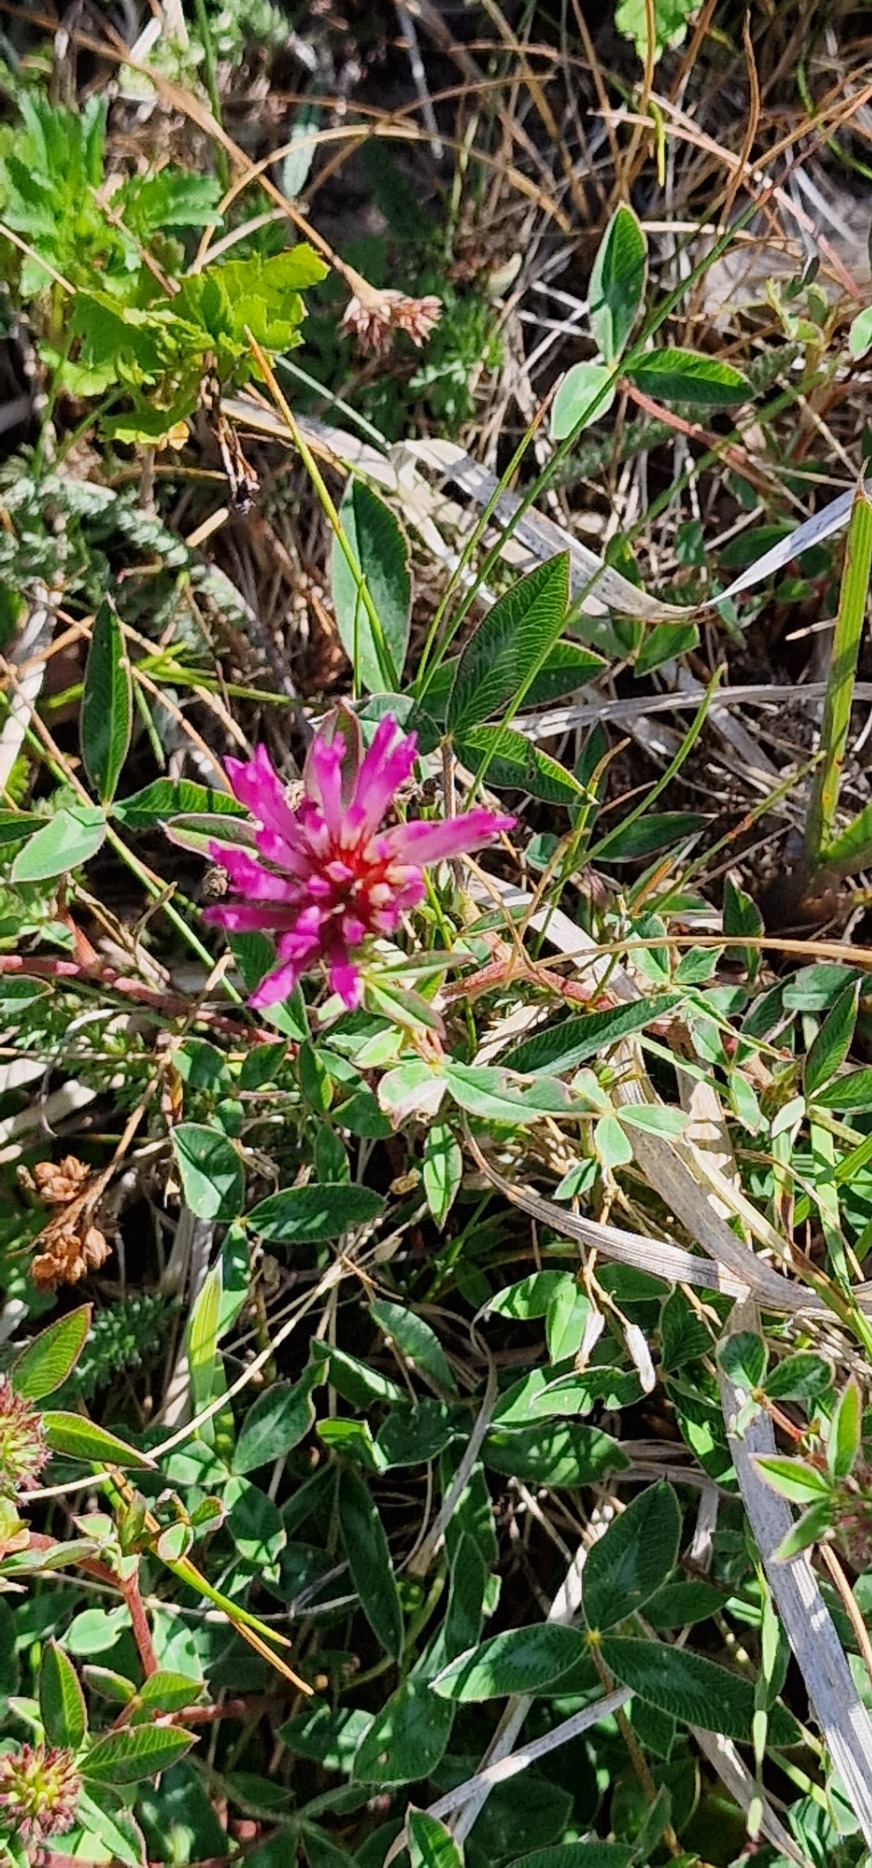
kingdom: Plantae
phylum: Tracheophyta
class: Magnoliopsida
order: Fabales
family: Fabaceae
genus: Trifolium
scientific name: Trifolium medium
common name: Bugtet kløver
